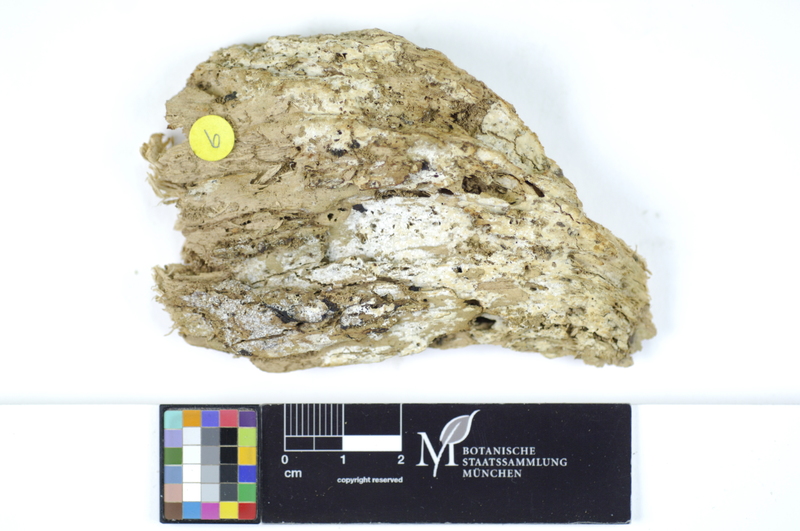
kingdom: Fungi
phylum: Basidiomycota
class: Agaricomycetes
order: Polyporales
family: Meruliaceae
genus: Conohypha
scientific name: Conohypha terricola
